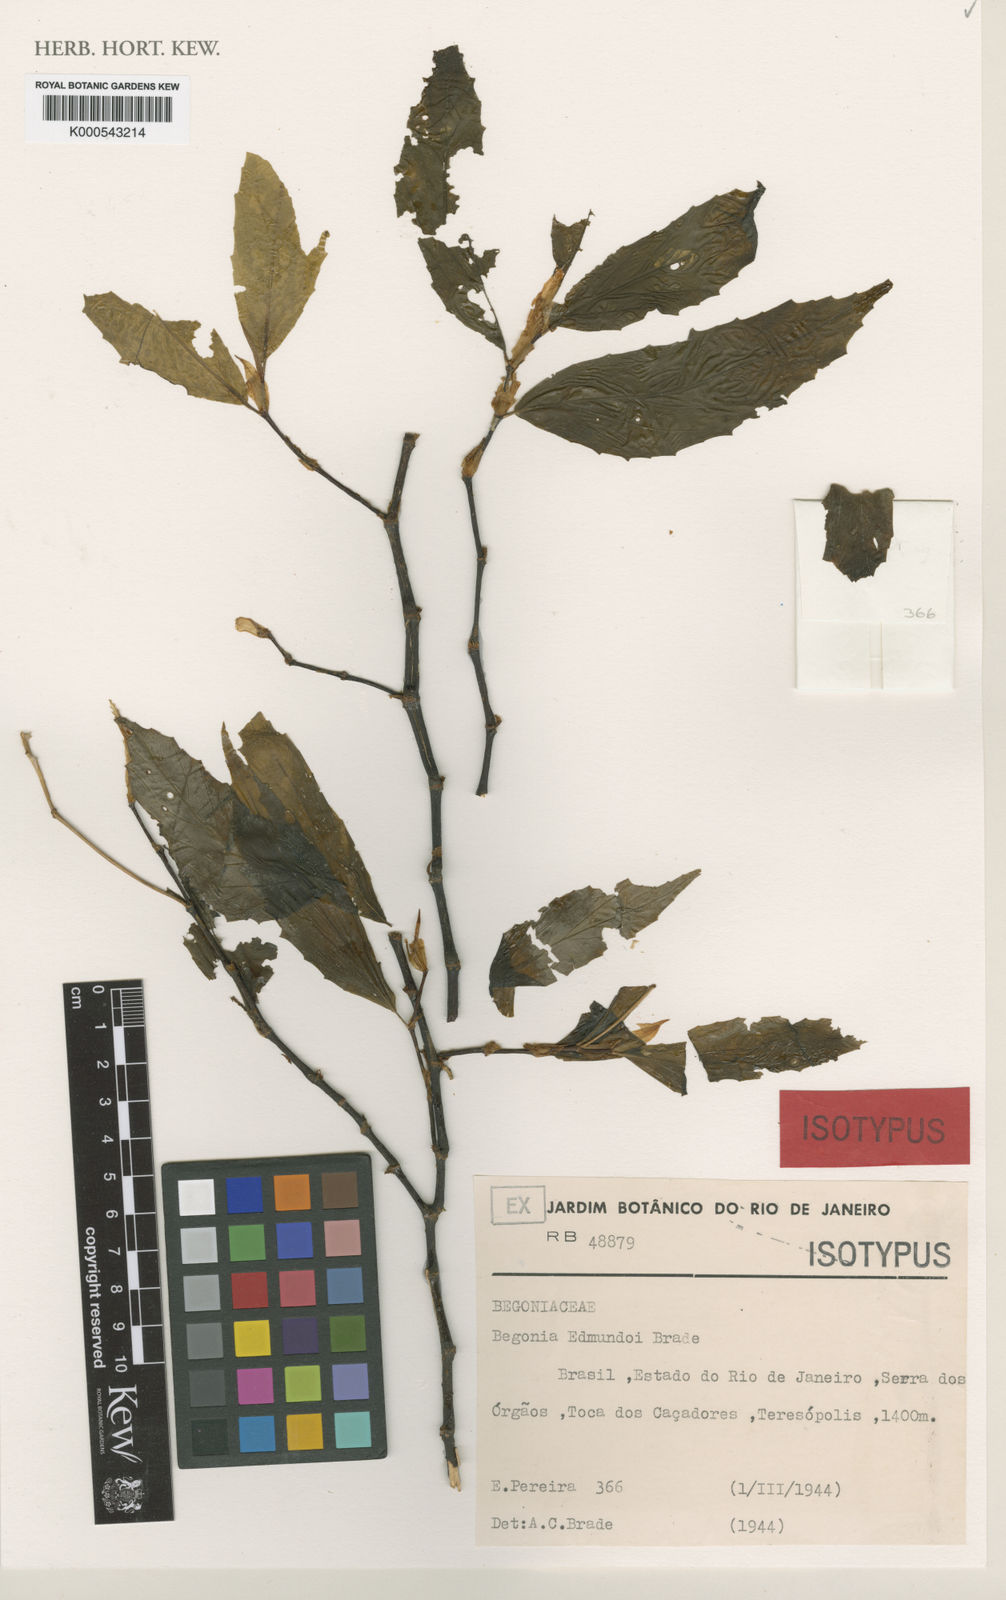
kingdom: Plantae
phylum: Tracheophyta
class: Magnoliopsida
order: Cucurbitales
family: Begoniaceae
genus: Begonia
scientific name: Begonia kunthiana
